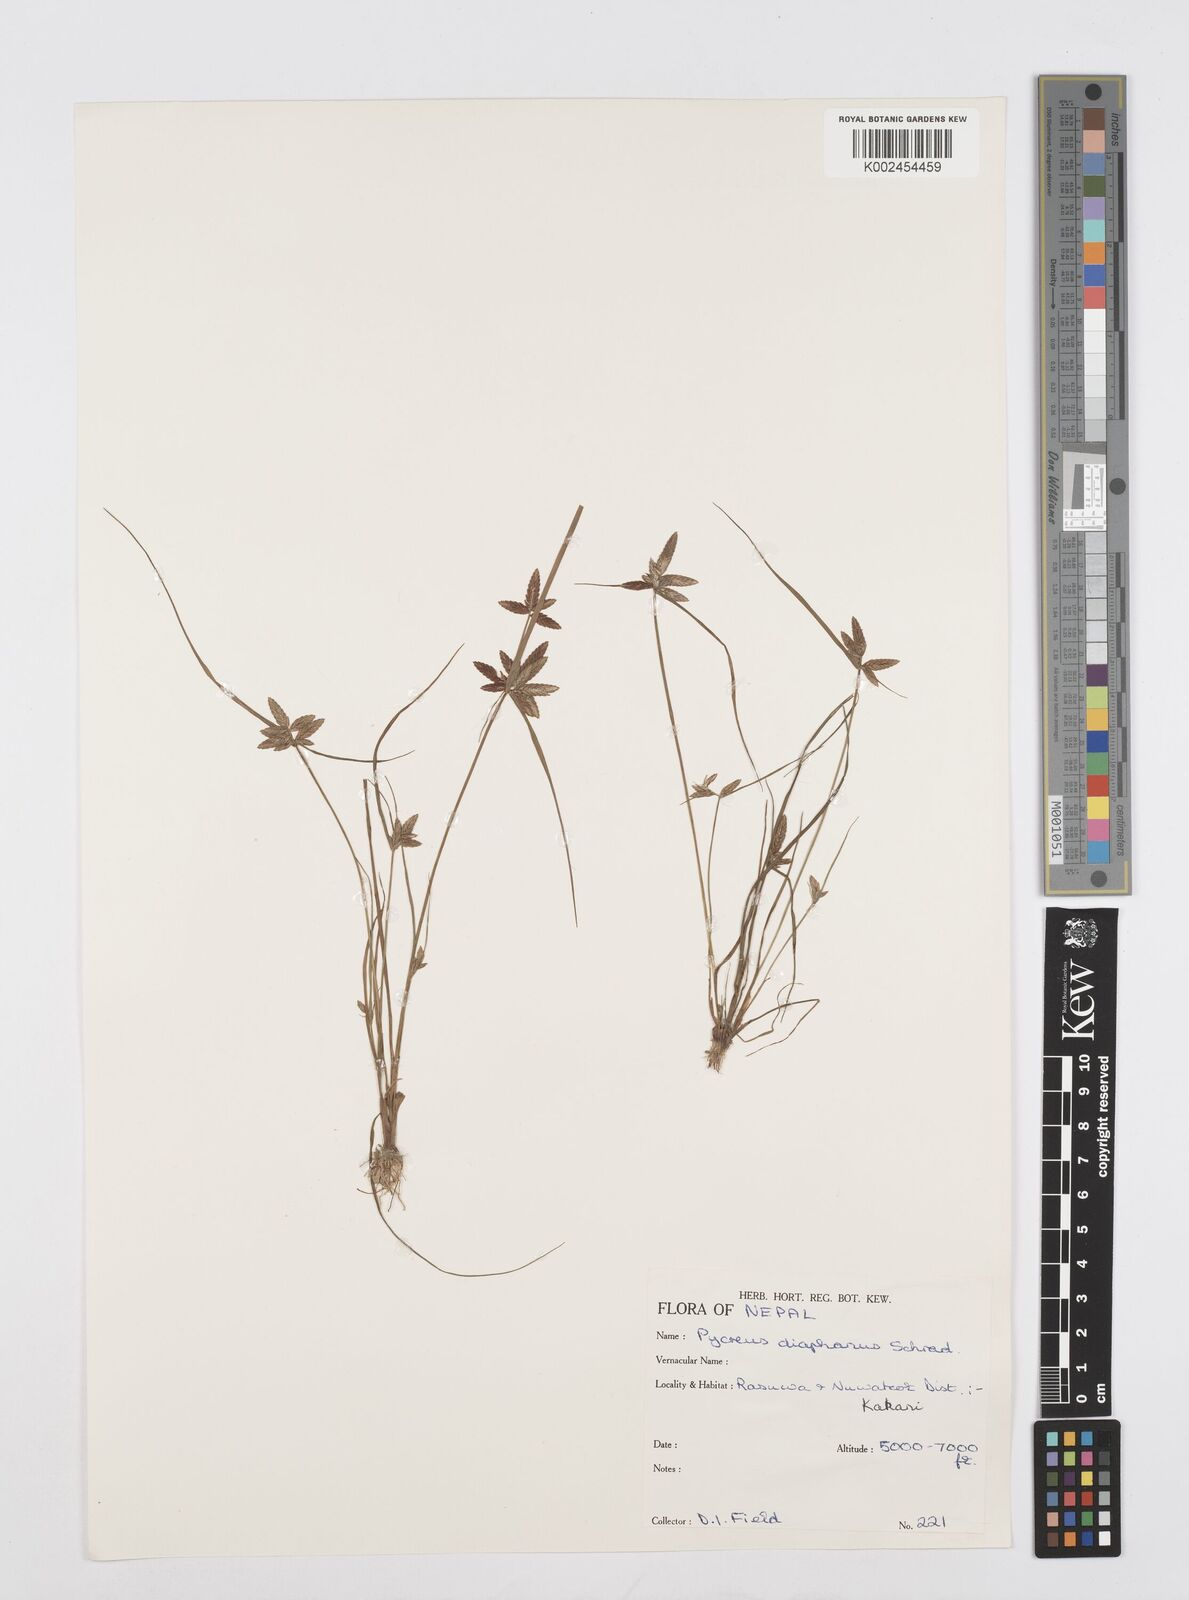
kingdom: Plantae
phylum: Tracheophyta
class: Liliopsida
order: Poales
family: Cyperaceae
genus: Cyperus
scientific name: Cyperus diaphanus
